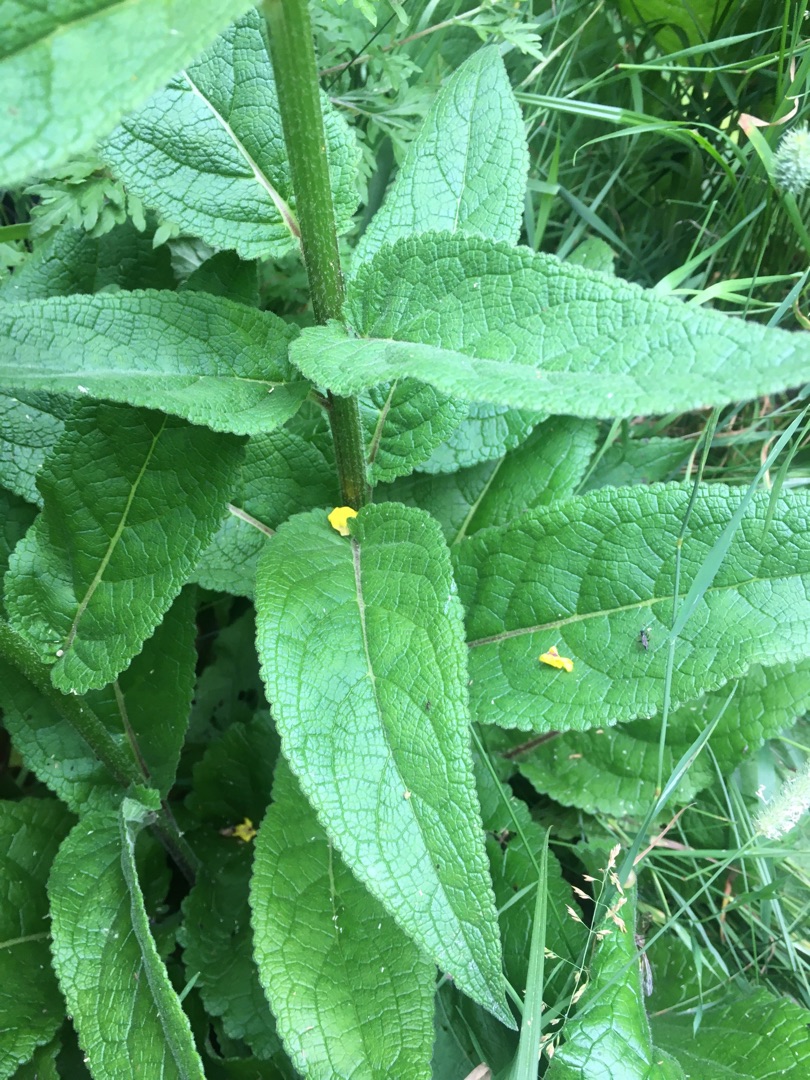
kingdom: Plantae
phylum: Tracheophyta
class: Magnoliopsida
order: Lamiales
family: Scrophulariaceae
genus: Verbascum
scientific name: Verbascum nigrum
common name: Mørk kongelys
